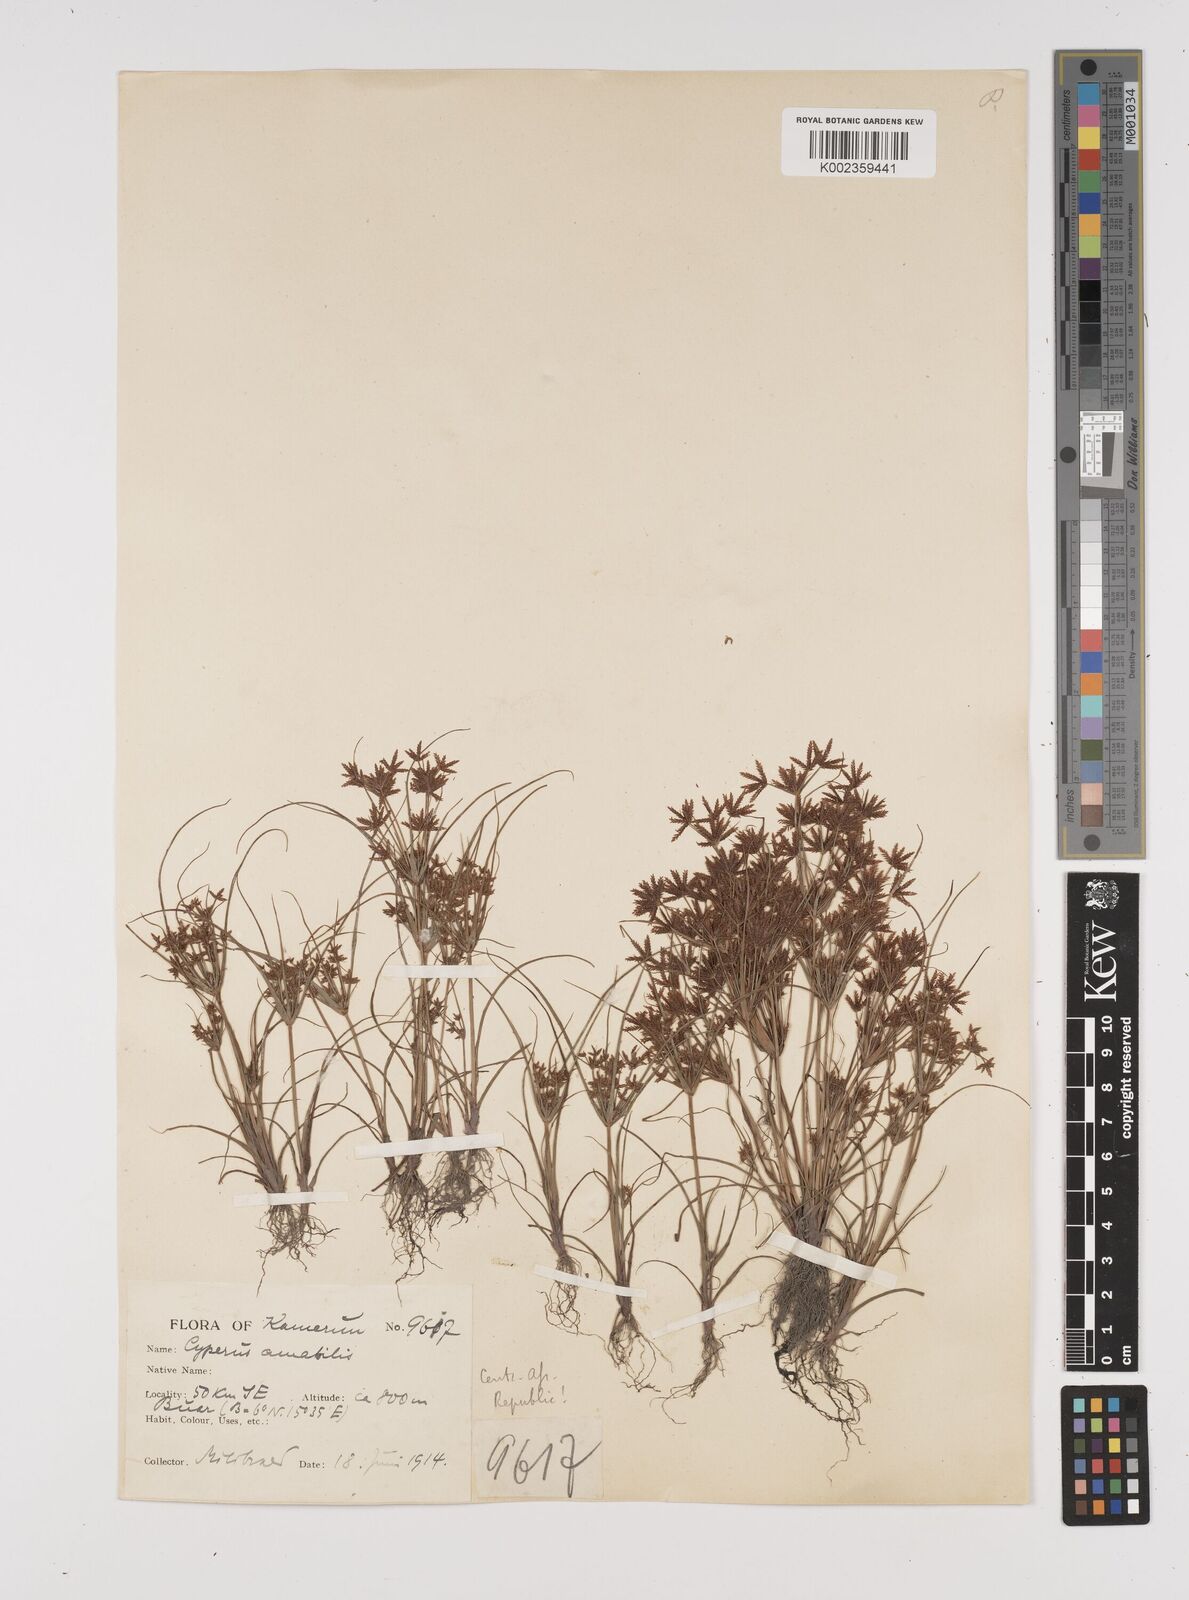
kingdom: Plantae
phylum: Tracheophyta
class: Liliopsida
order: Poales
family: Cyperaceae
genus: Cyperus
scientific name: Cyperus amabilis
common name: Foothill flat sedge
